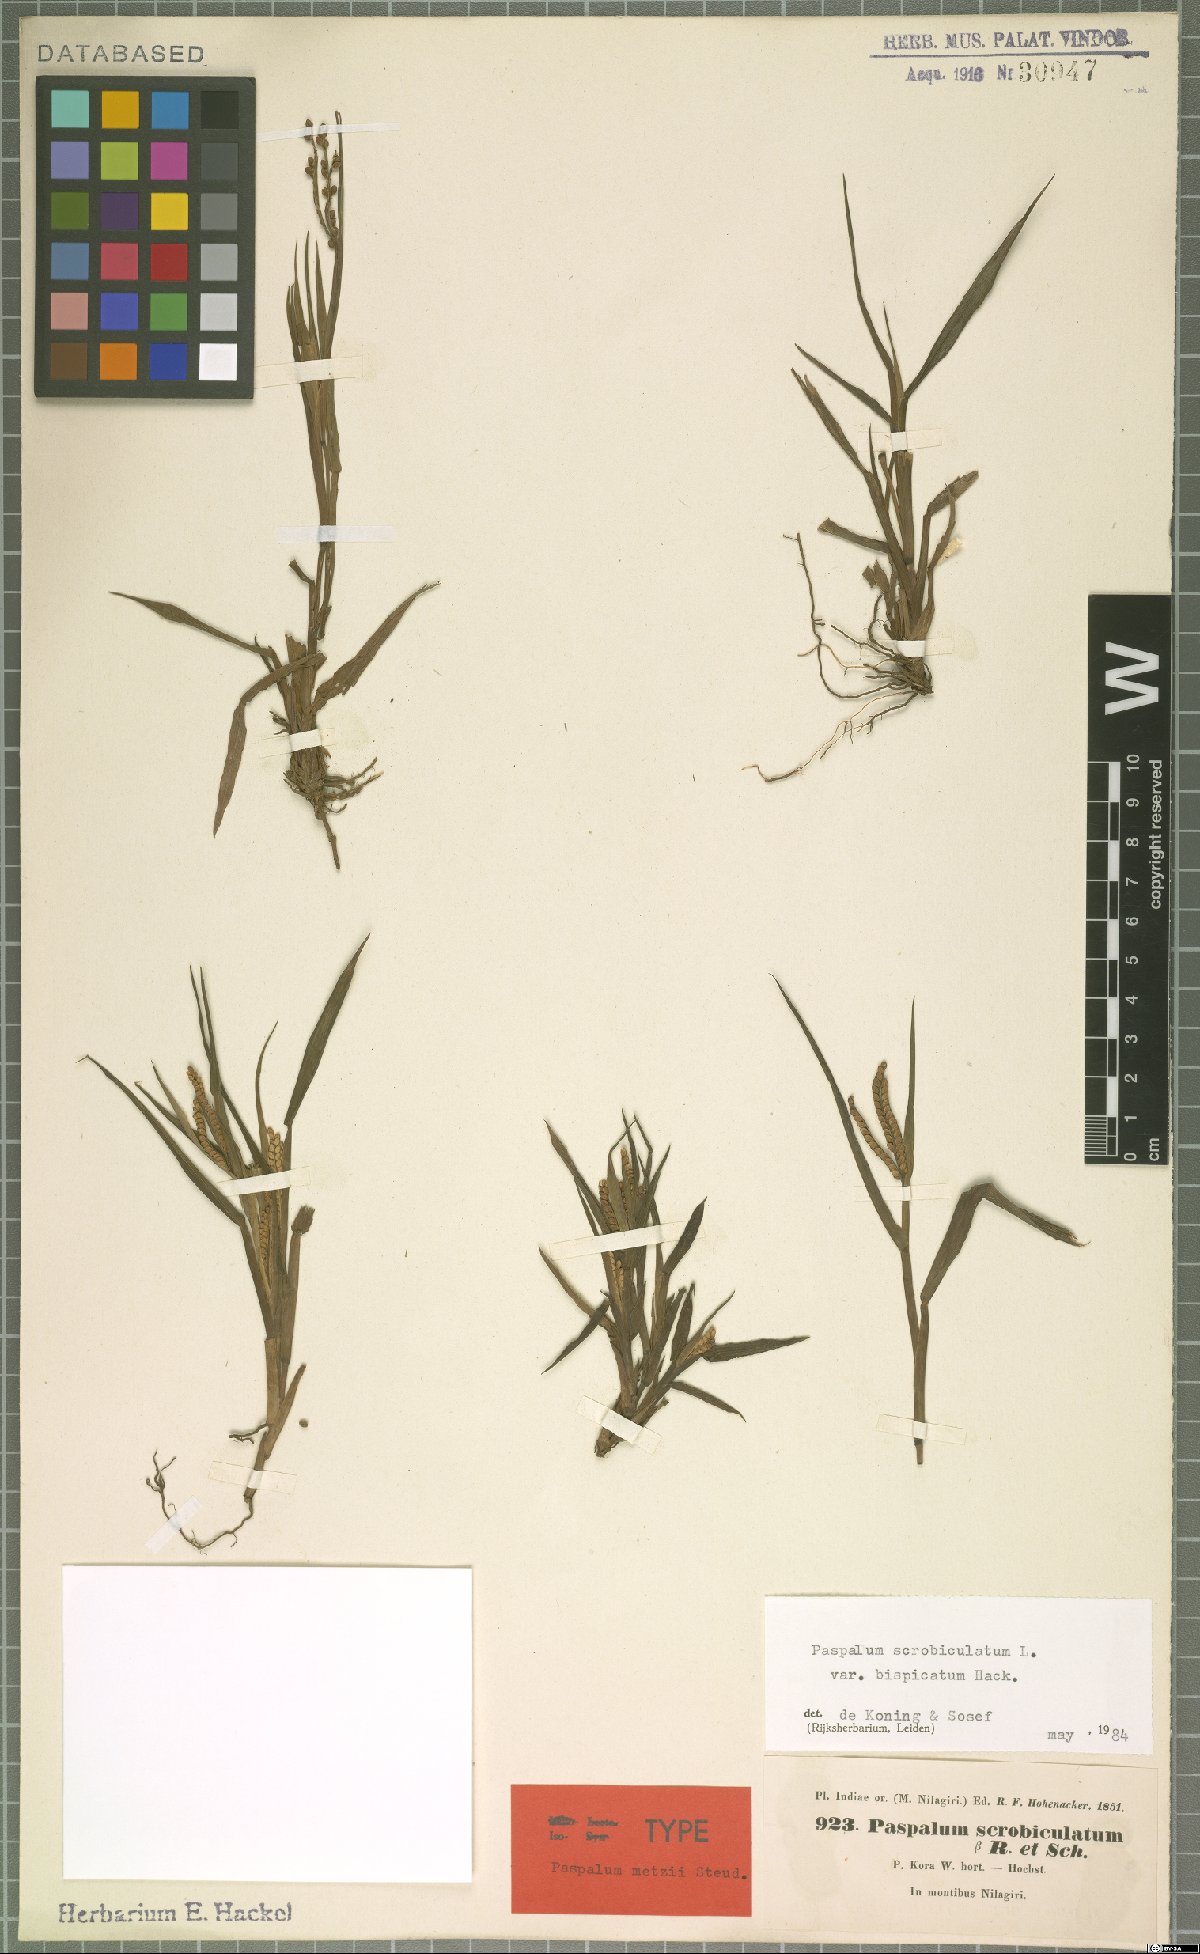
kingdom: Plantae
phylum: Tracheophyta
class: Liliopsida
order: Poales
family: Poaceae
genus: Paspalum
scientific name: Paspalum scrobiculatum
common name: Kodo millet
